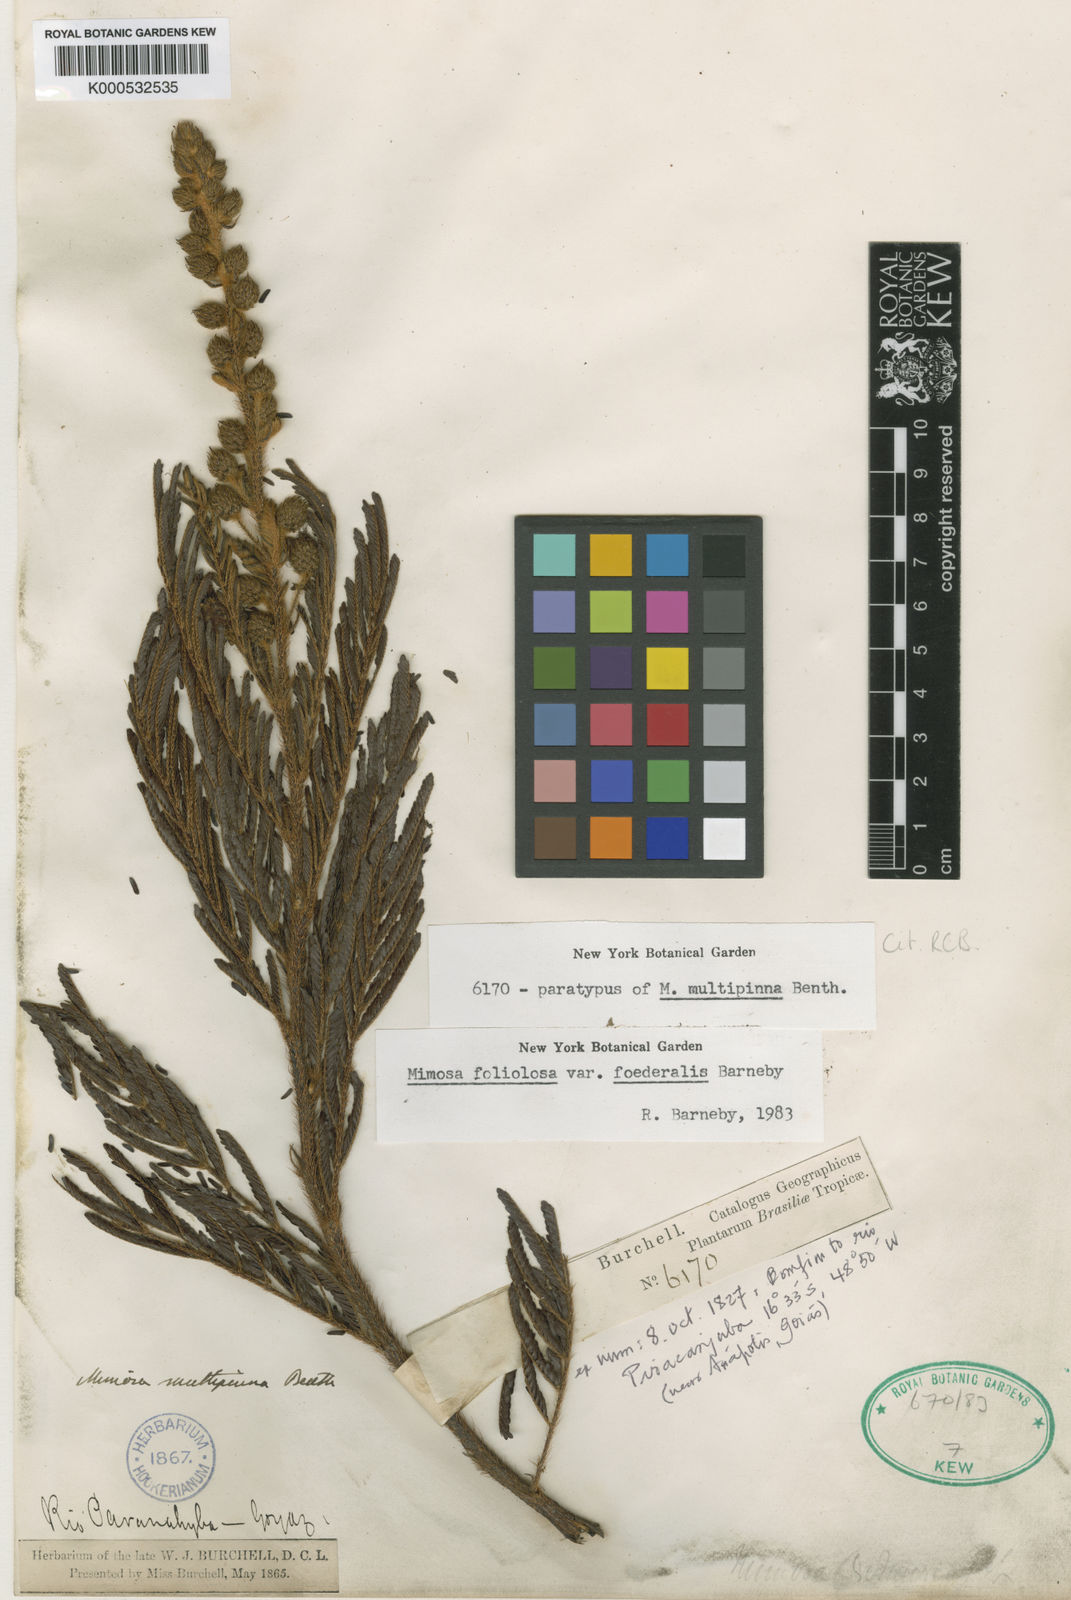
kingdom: Plantae
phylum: Tracheophyta
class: Magnoliopsida
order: Fabales
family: Fabaceae
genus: Mimosa
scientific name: Mimosa foliolosa
